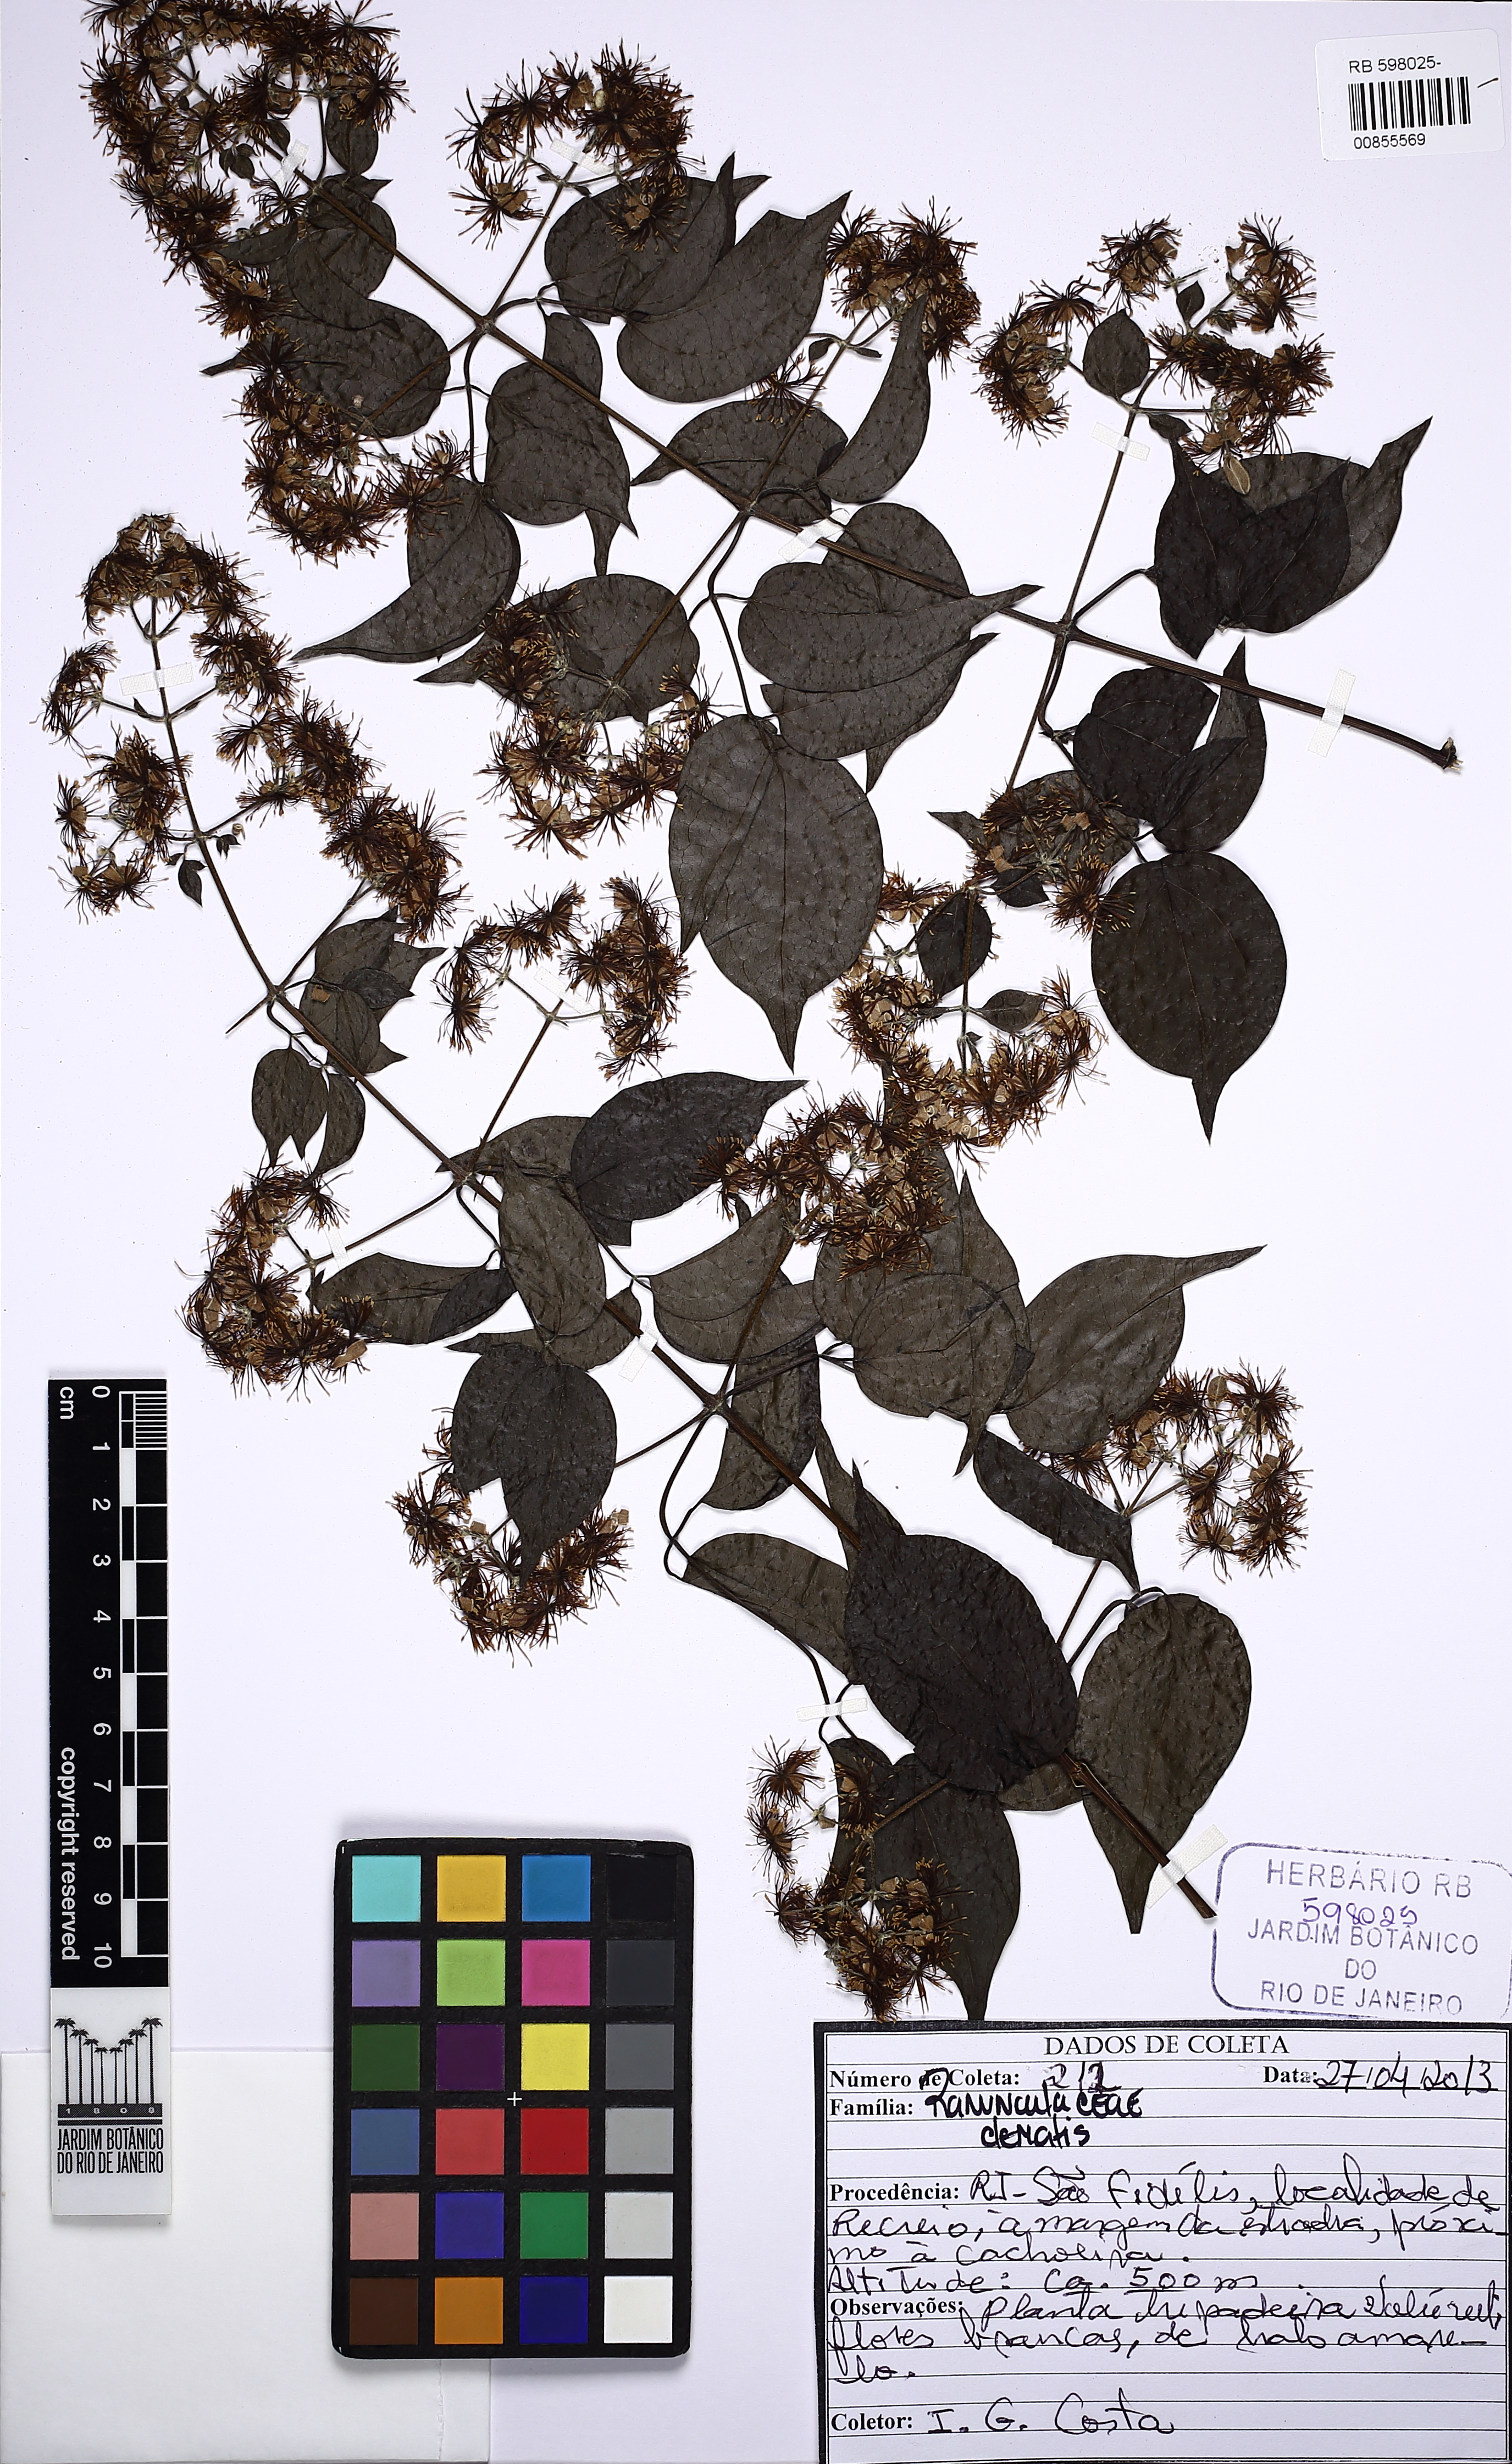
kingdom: Plantae
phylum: Tracheophyta
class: Magnoliopsida
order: Ranunculales
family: Ranunculaceae
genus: Clematis
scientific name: Clematis
